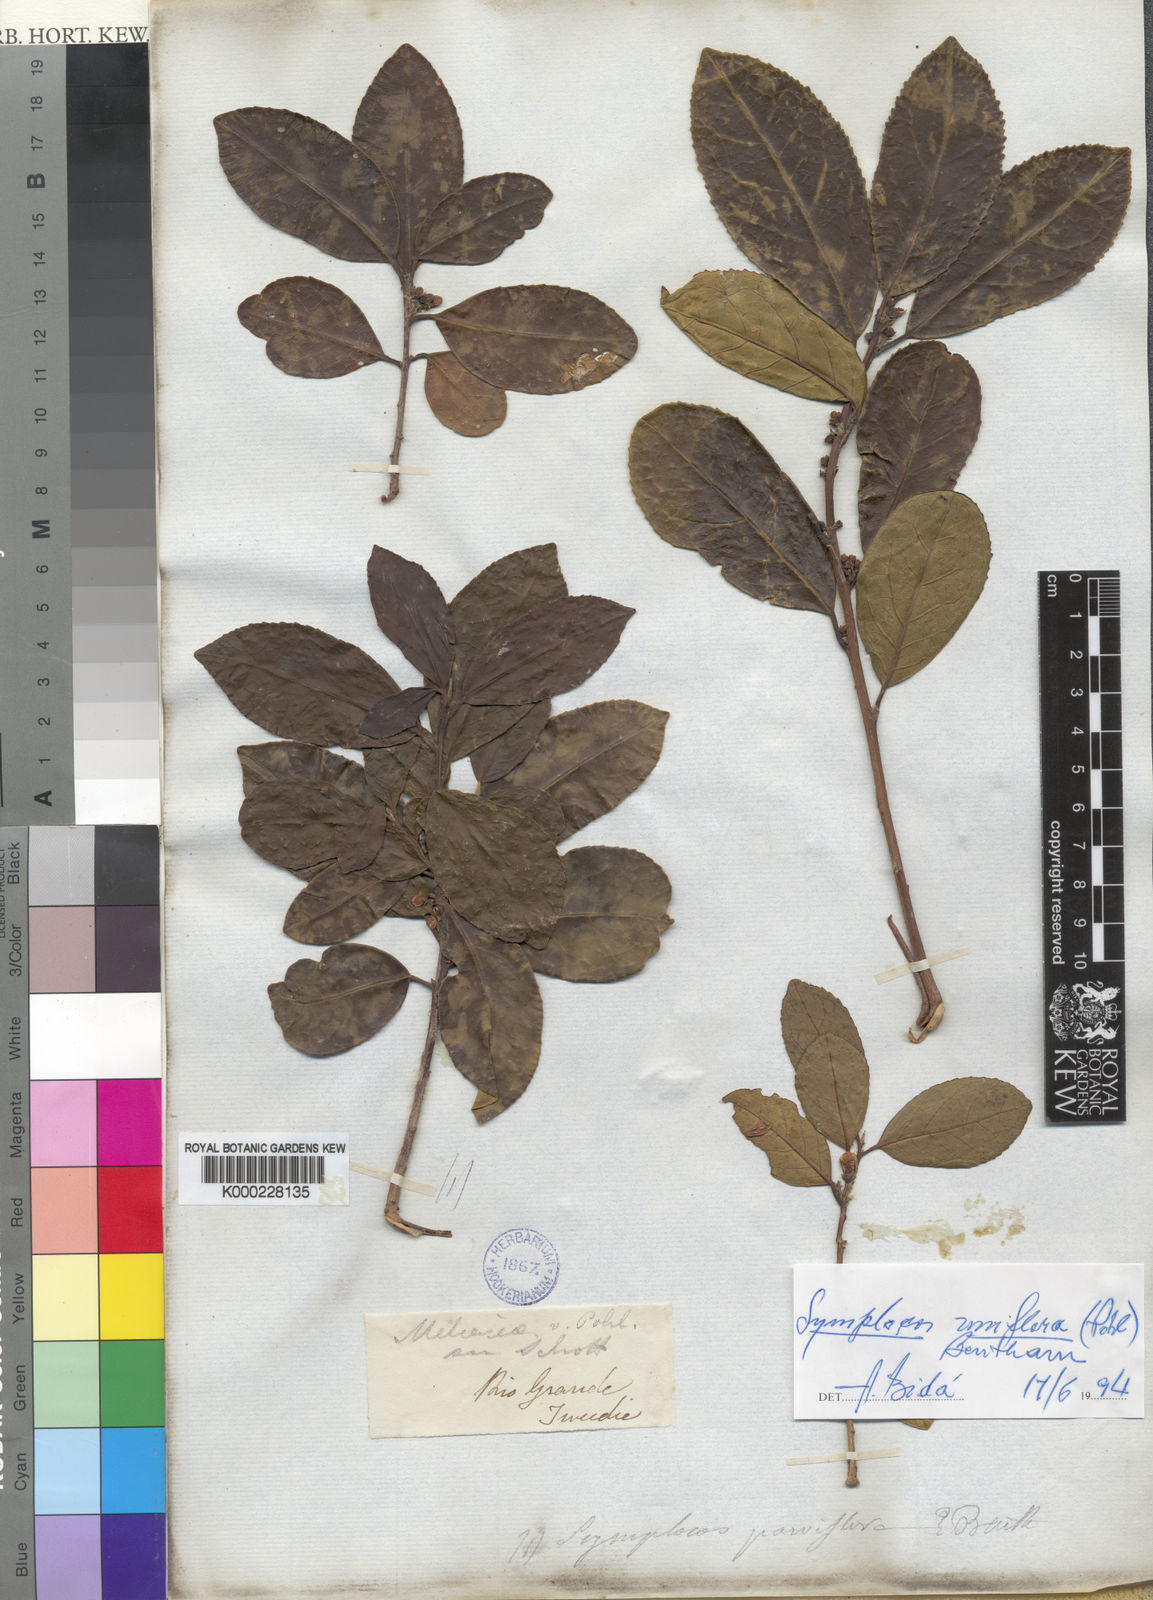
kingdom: Plantae
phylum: Tracheophyta
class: Magnoliopsida
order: Ericales
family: Symplocaceae
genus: Symplocos
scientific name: Symplocos uniflora
